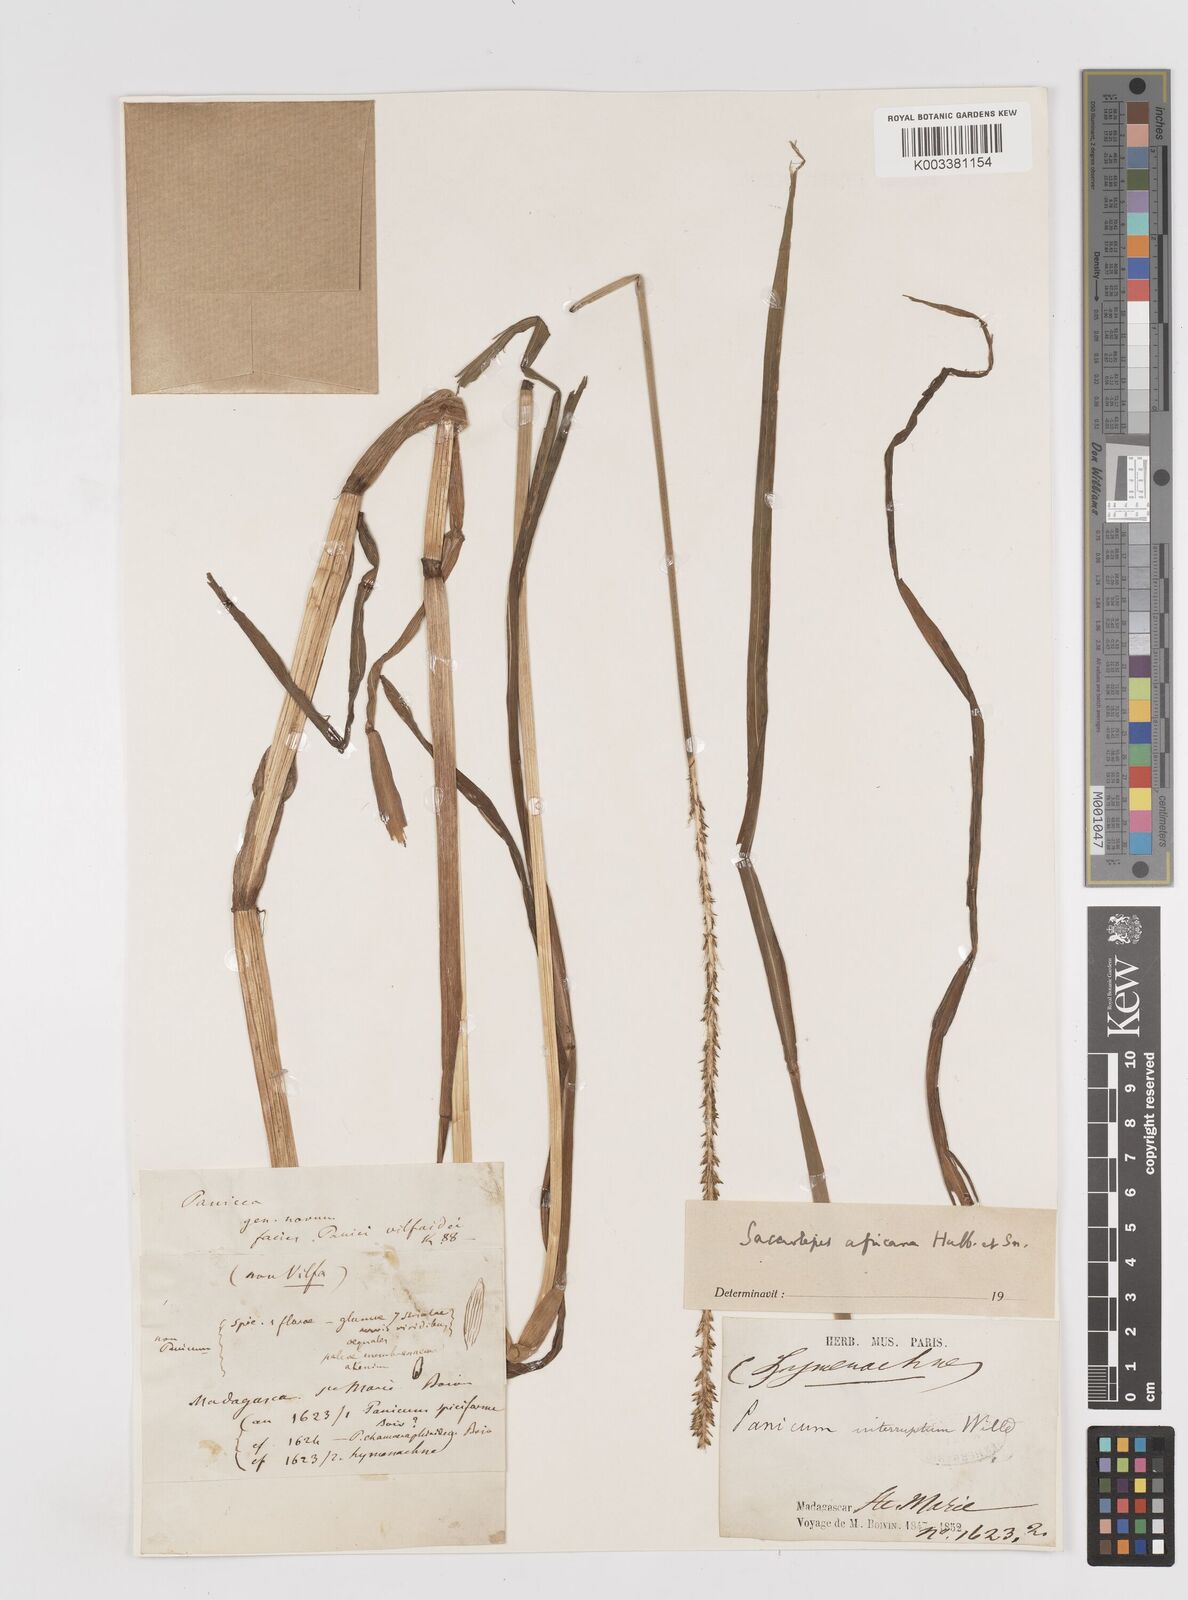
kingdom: Plantae
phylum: Tracheophyta
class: Liliopsida
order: Poales
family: Poaceae
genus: Sacciolepis
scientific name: Sacciolepis africana
